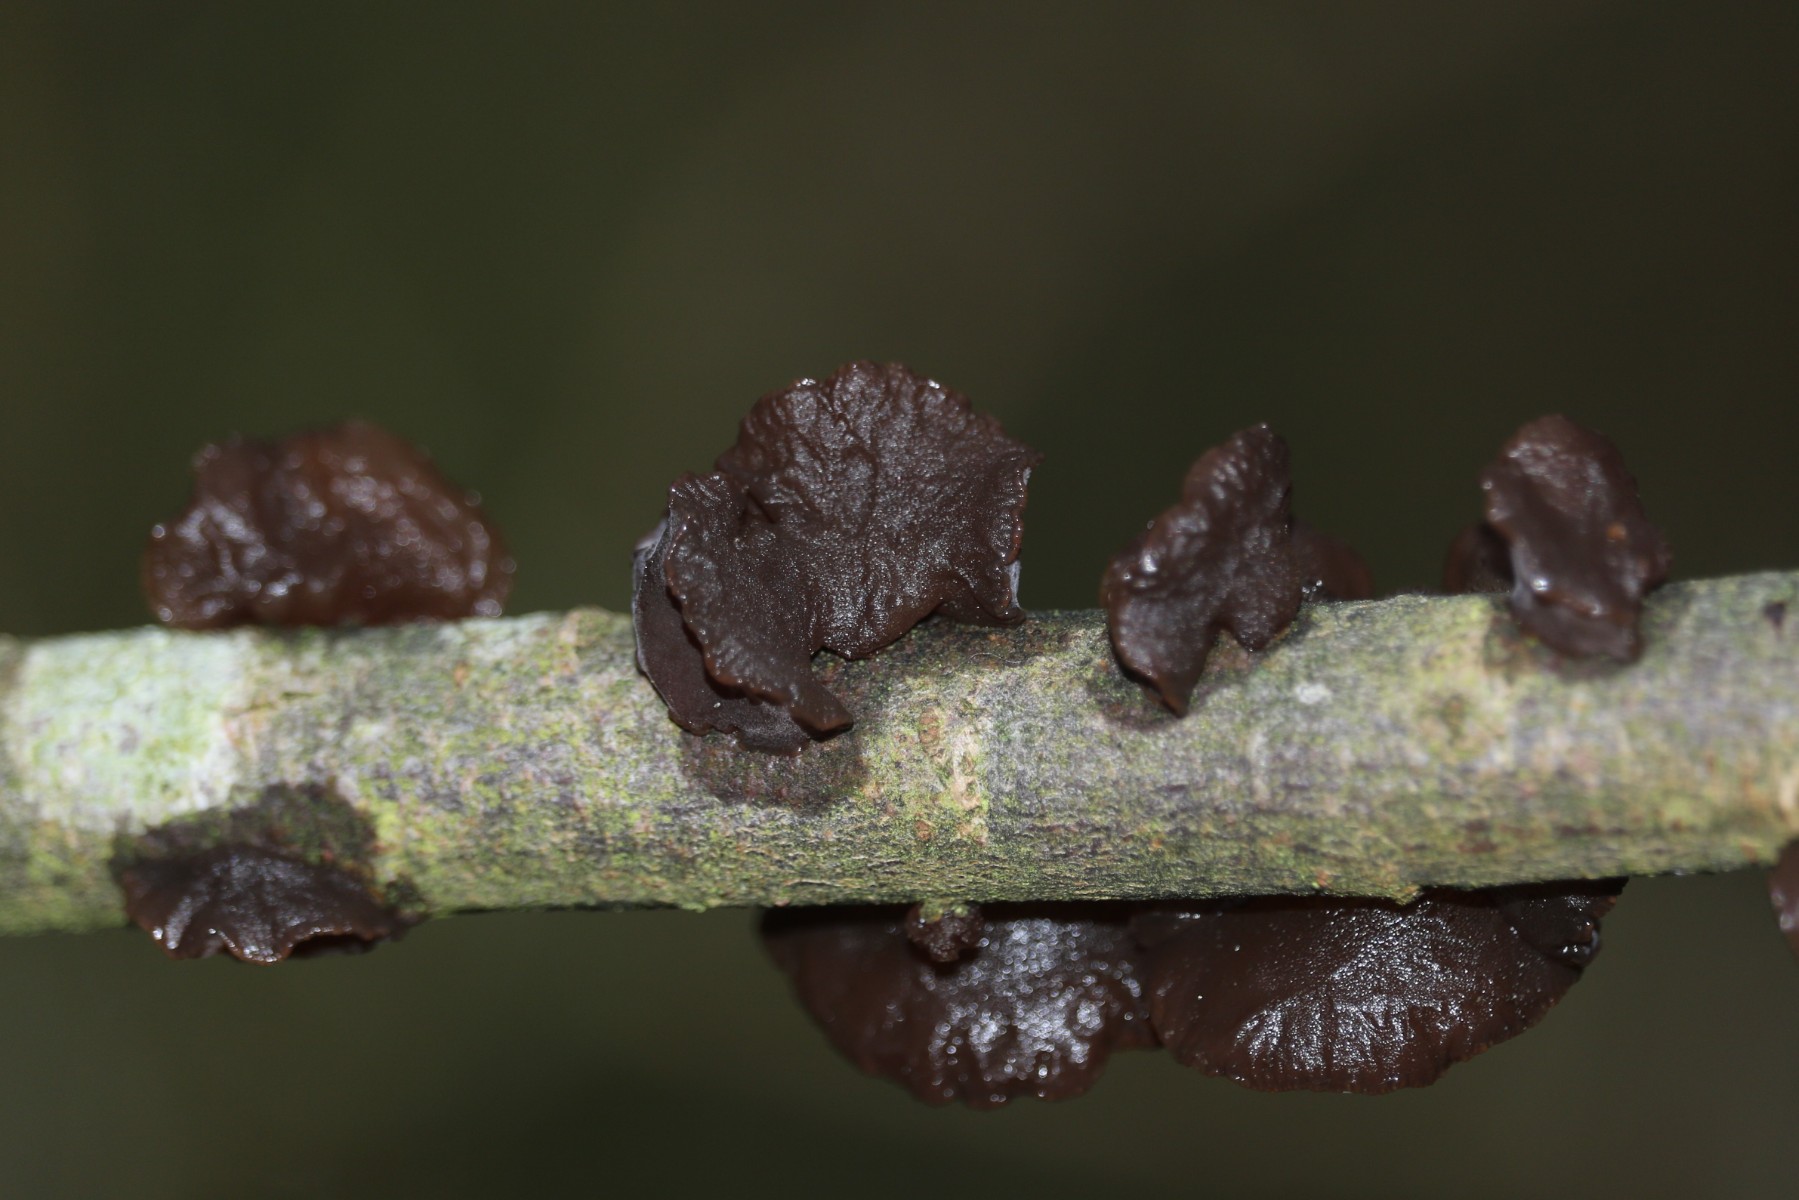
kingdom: Fungi
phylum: Basidiomycota
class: Agaricomycetes
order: Auriculariales
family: Auriculariaceae
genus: Exidia
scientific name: Exidia recisa
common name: pile-bævretop
